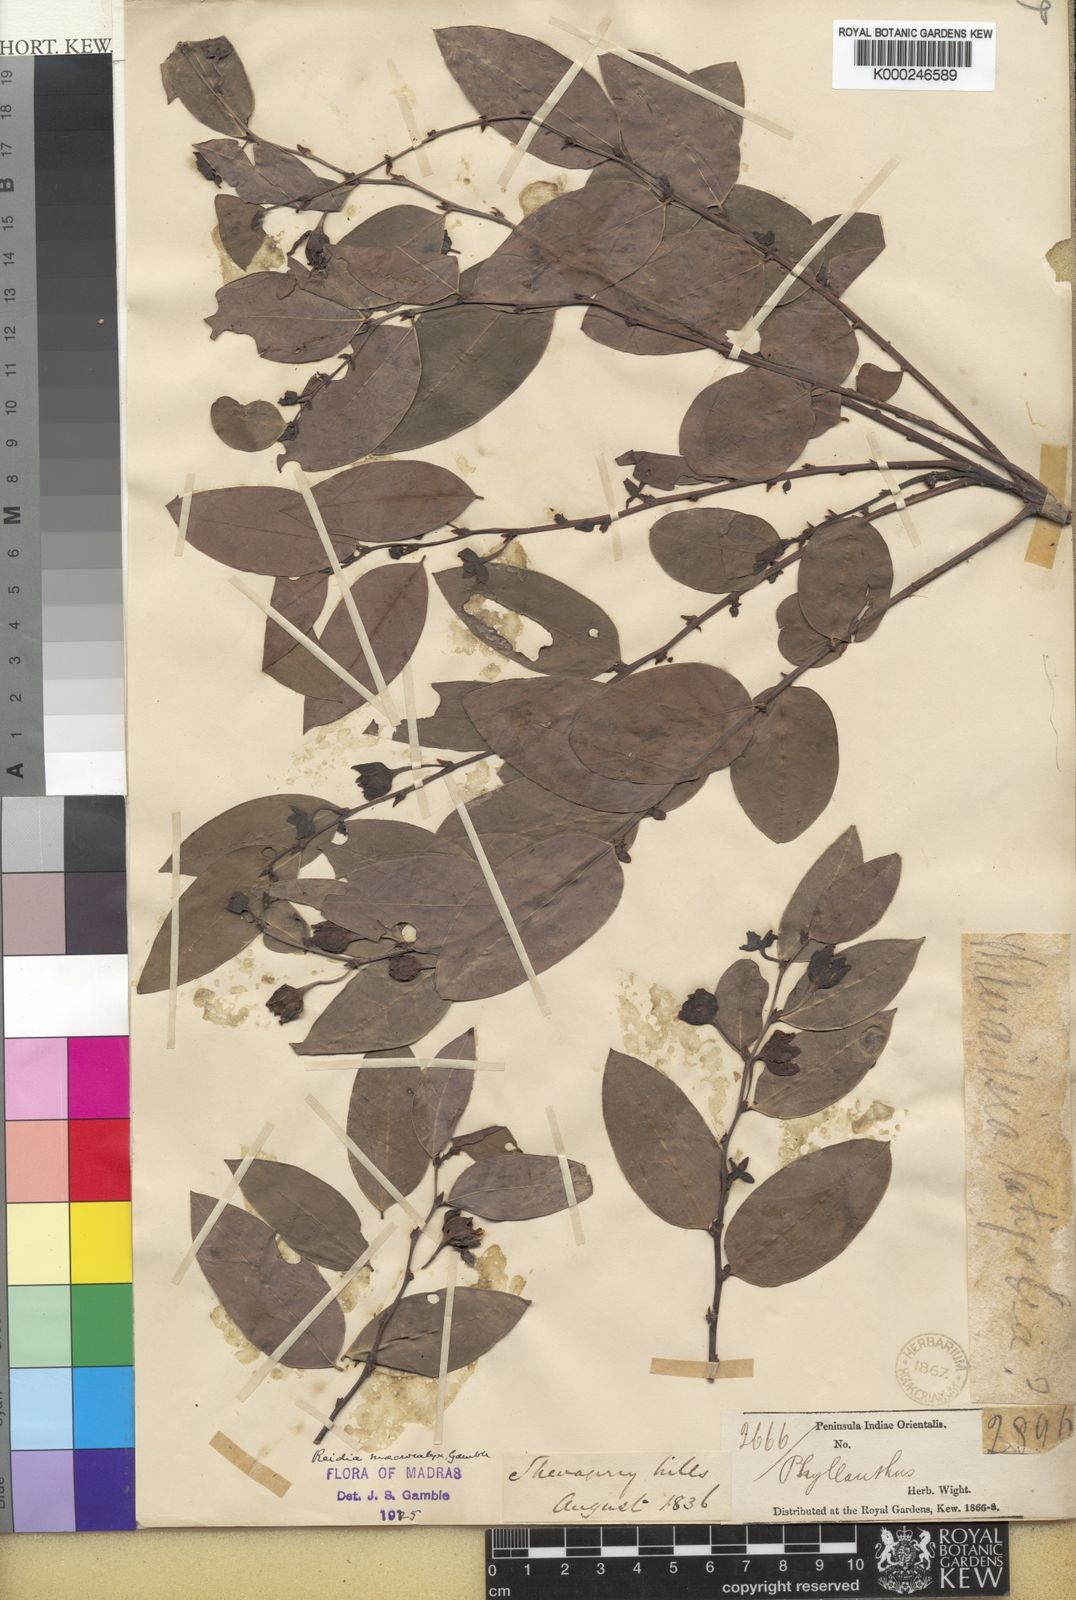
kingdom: Plantae
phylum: Tracheophyta
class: Magnoliopsida
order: Malpighiales
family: Phyllanthaceae
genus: Phyllanthus
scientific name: Phyllanthus
